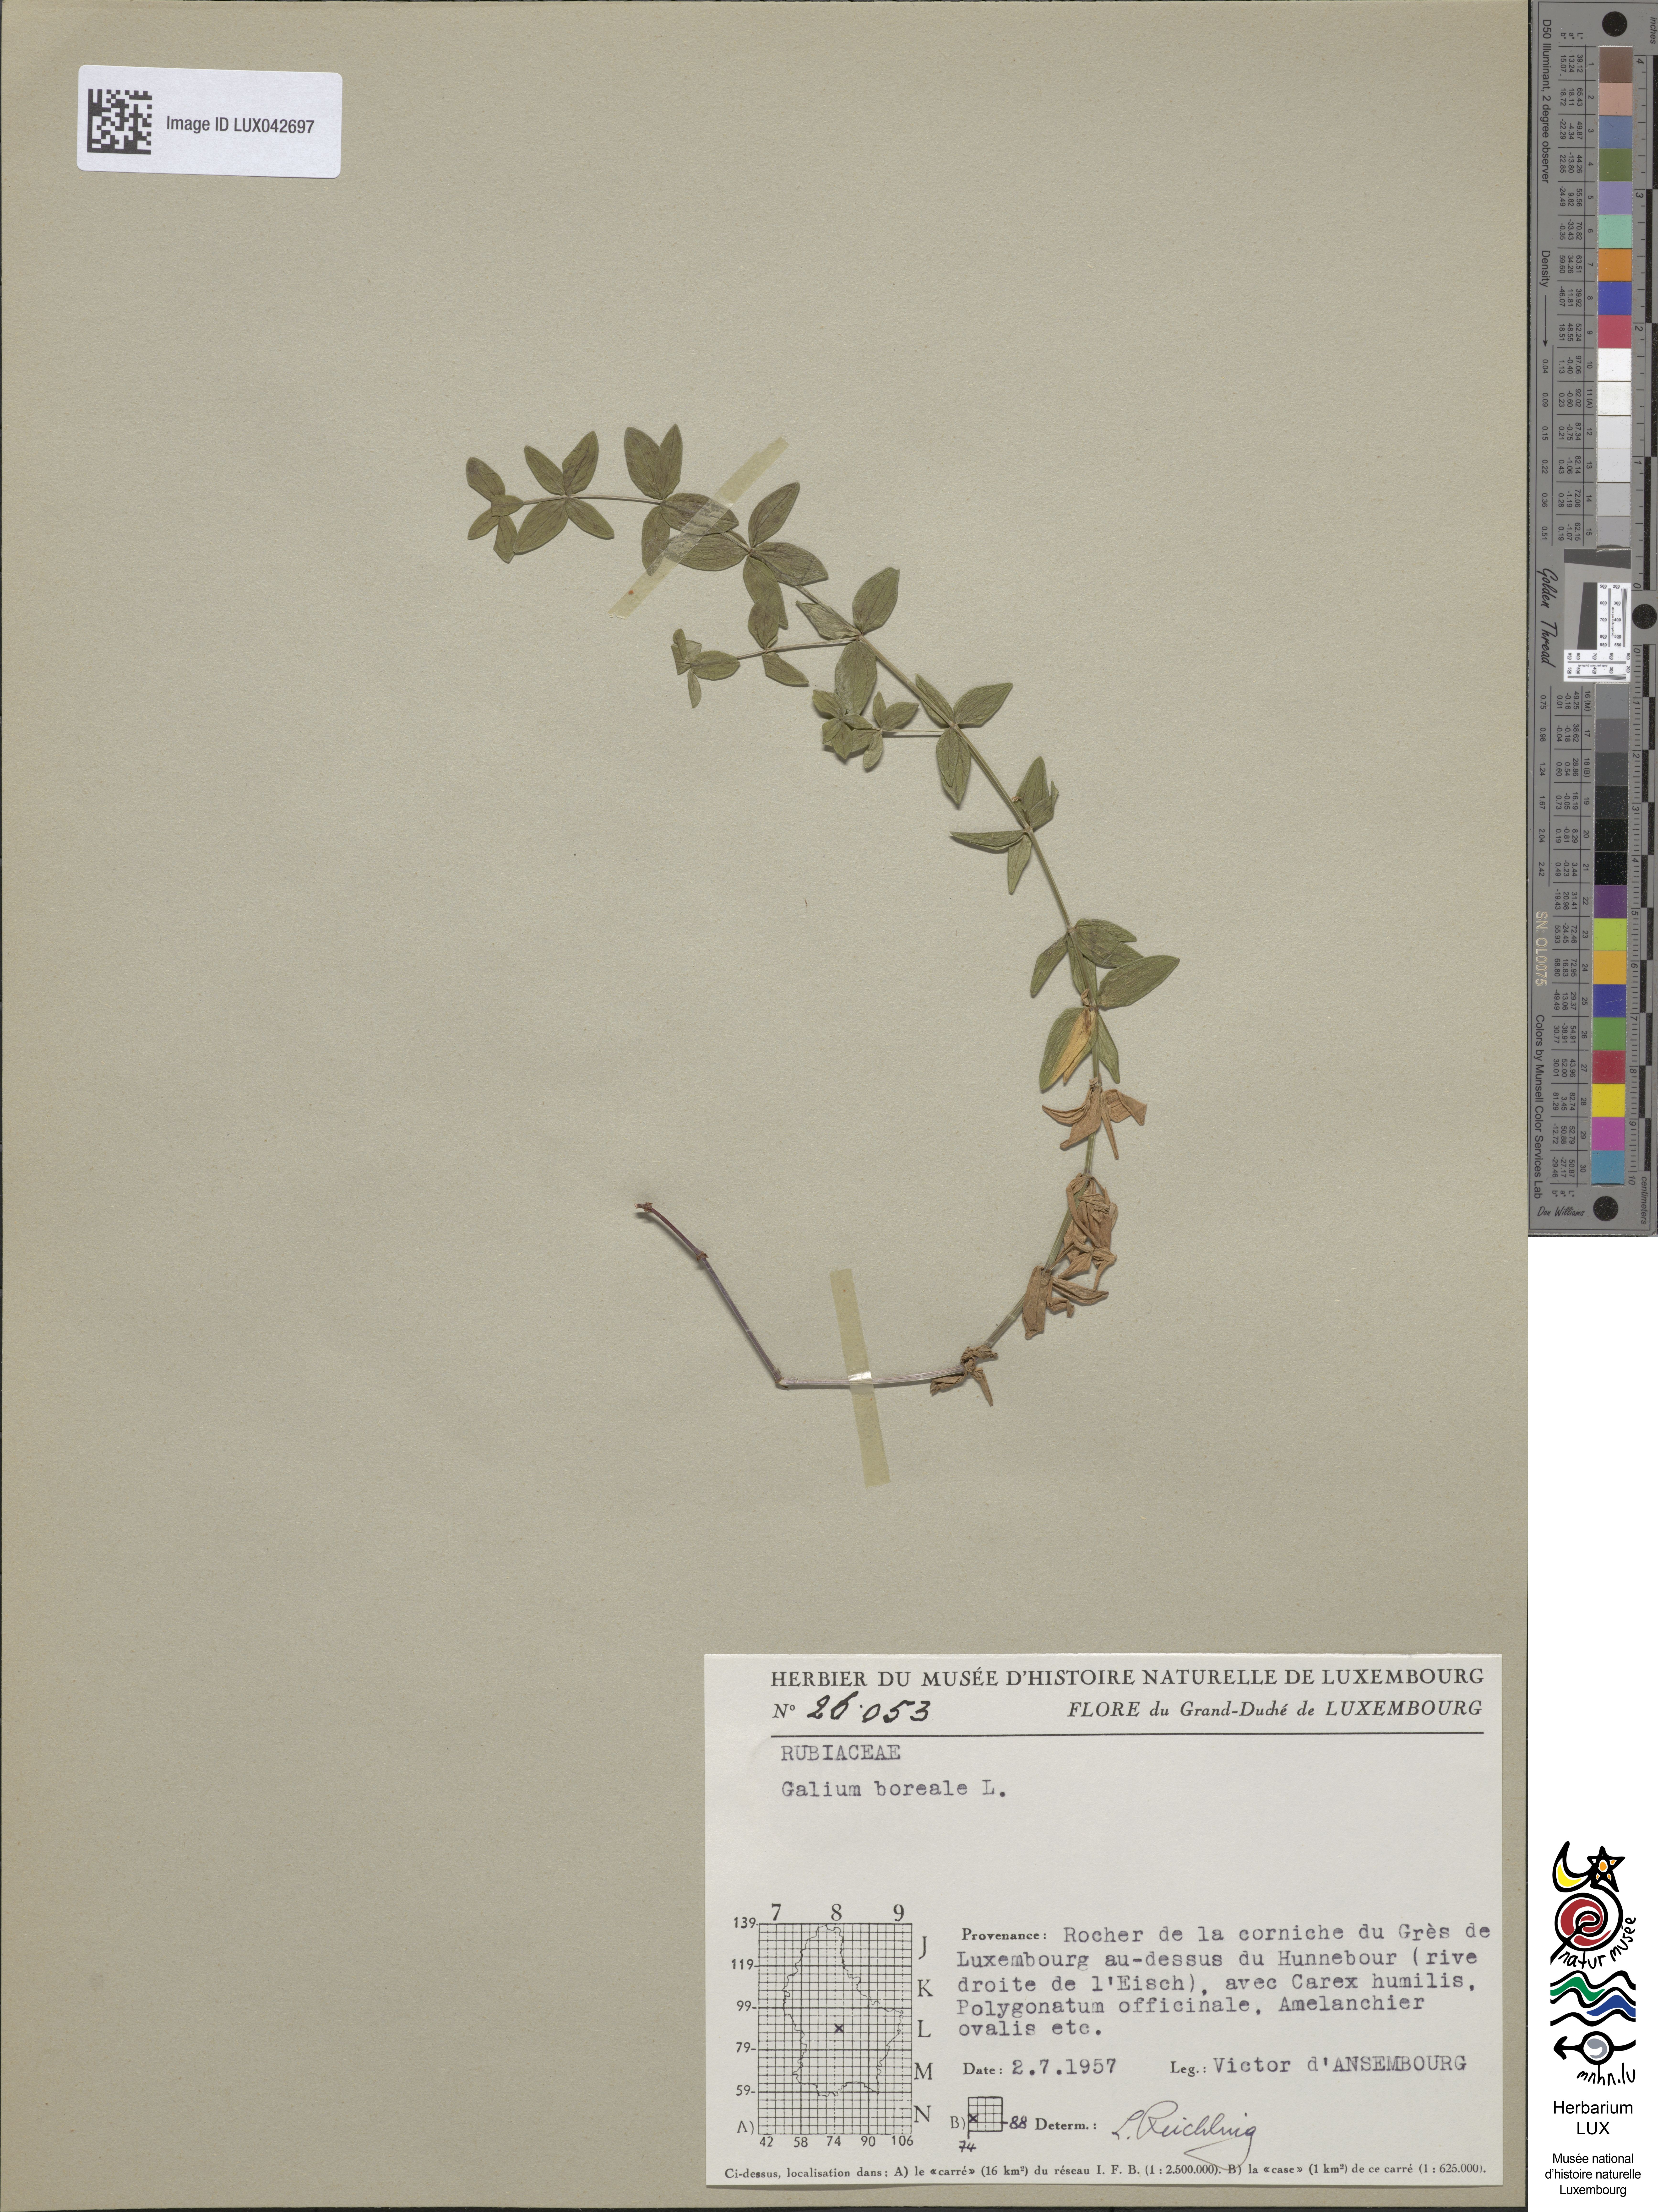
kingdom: Plantae
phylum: Tracheophyta
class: Magnoliopsida
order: Gentianales
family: Rubiaceae
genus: Galium
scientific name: Galium boreale
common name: Northern bedstraw
